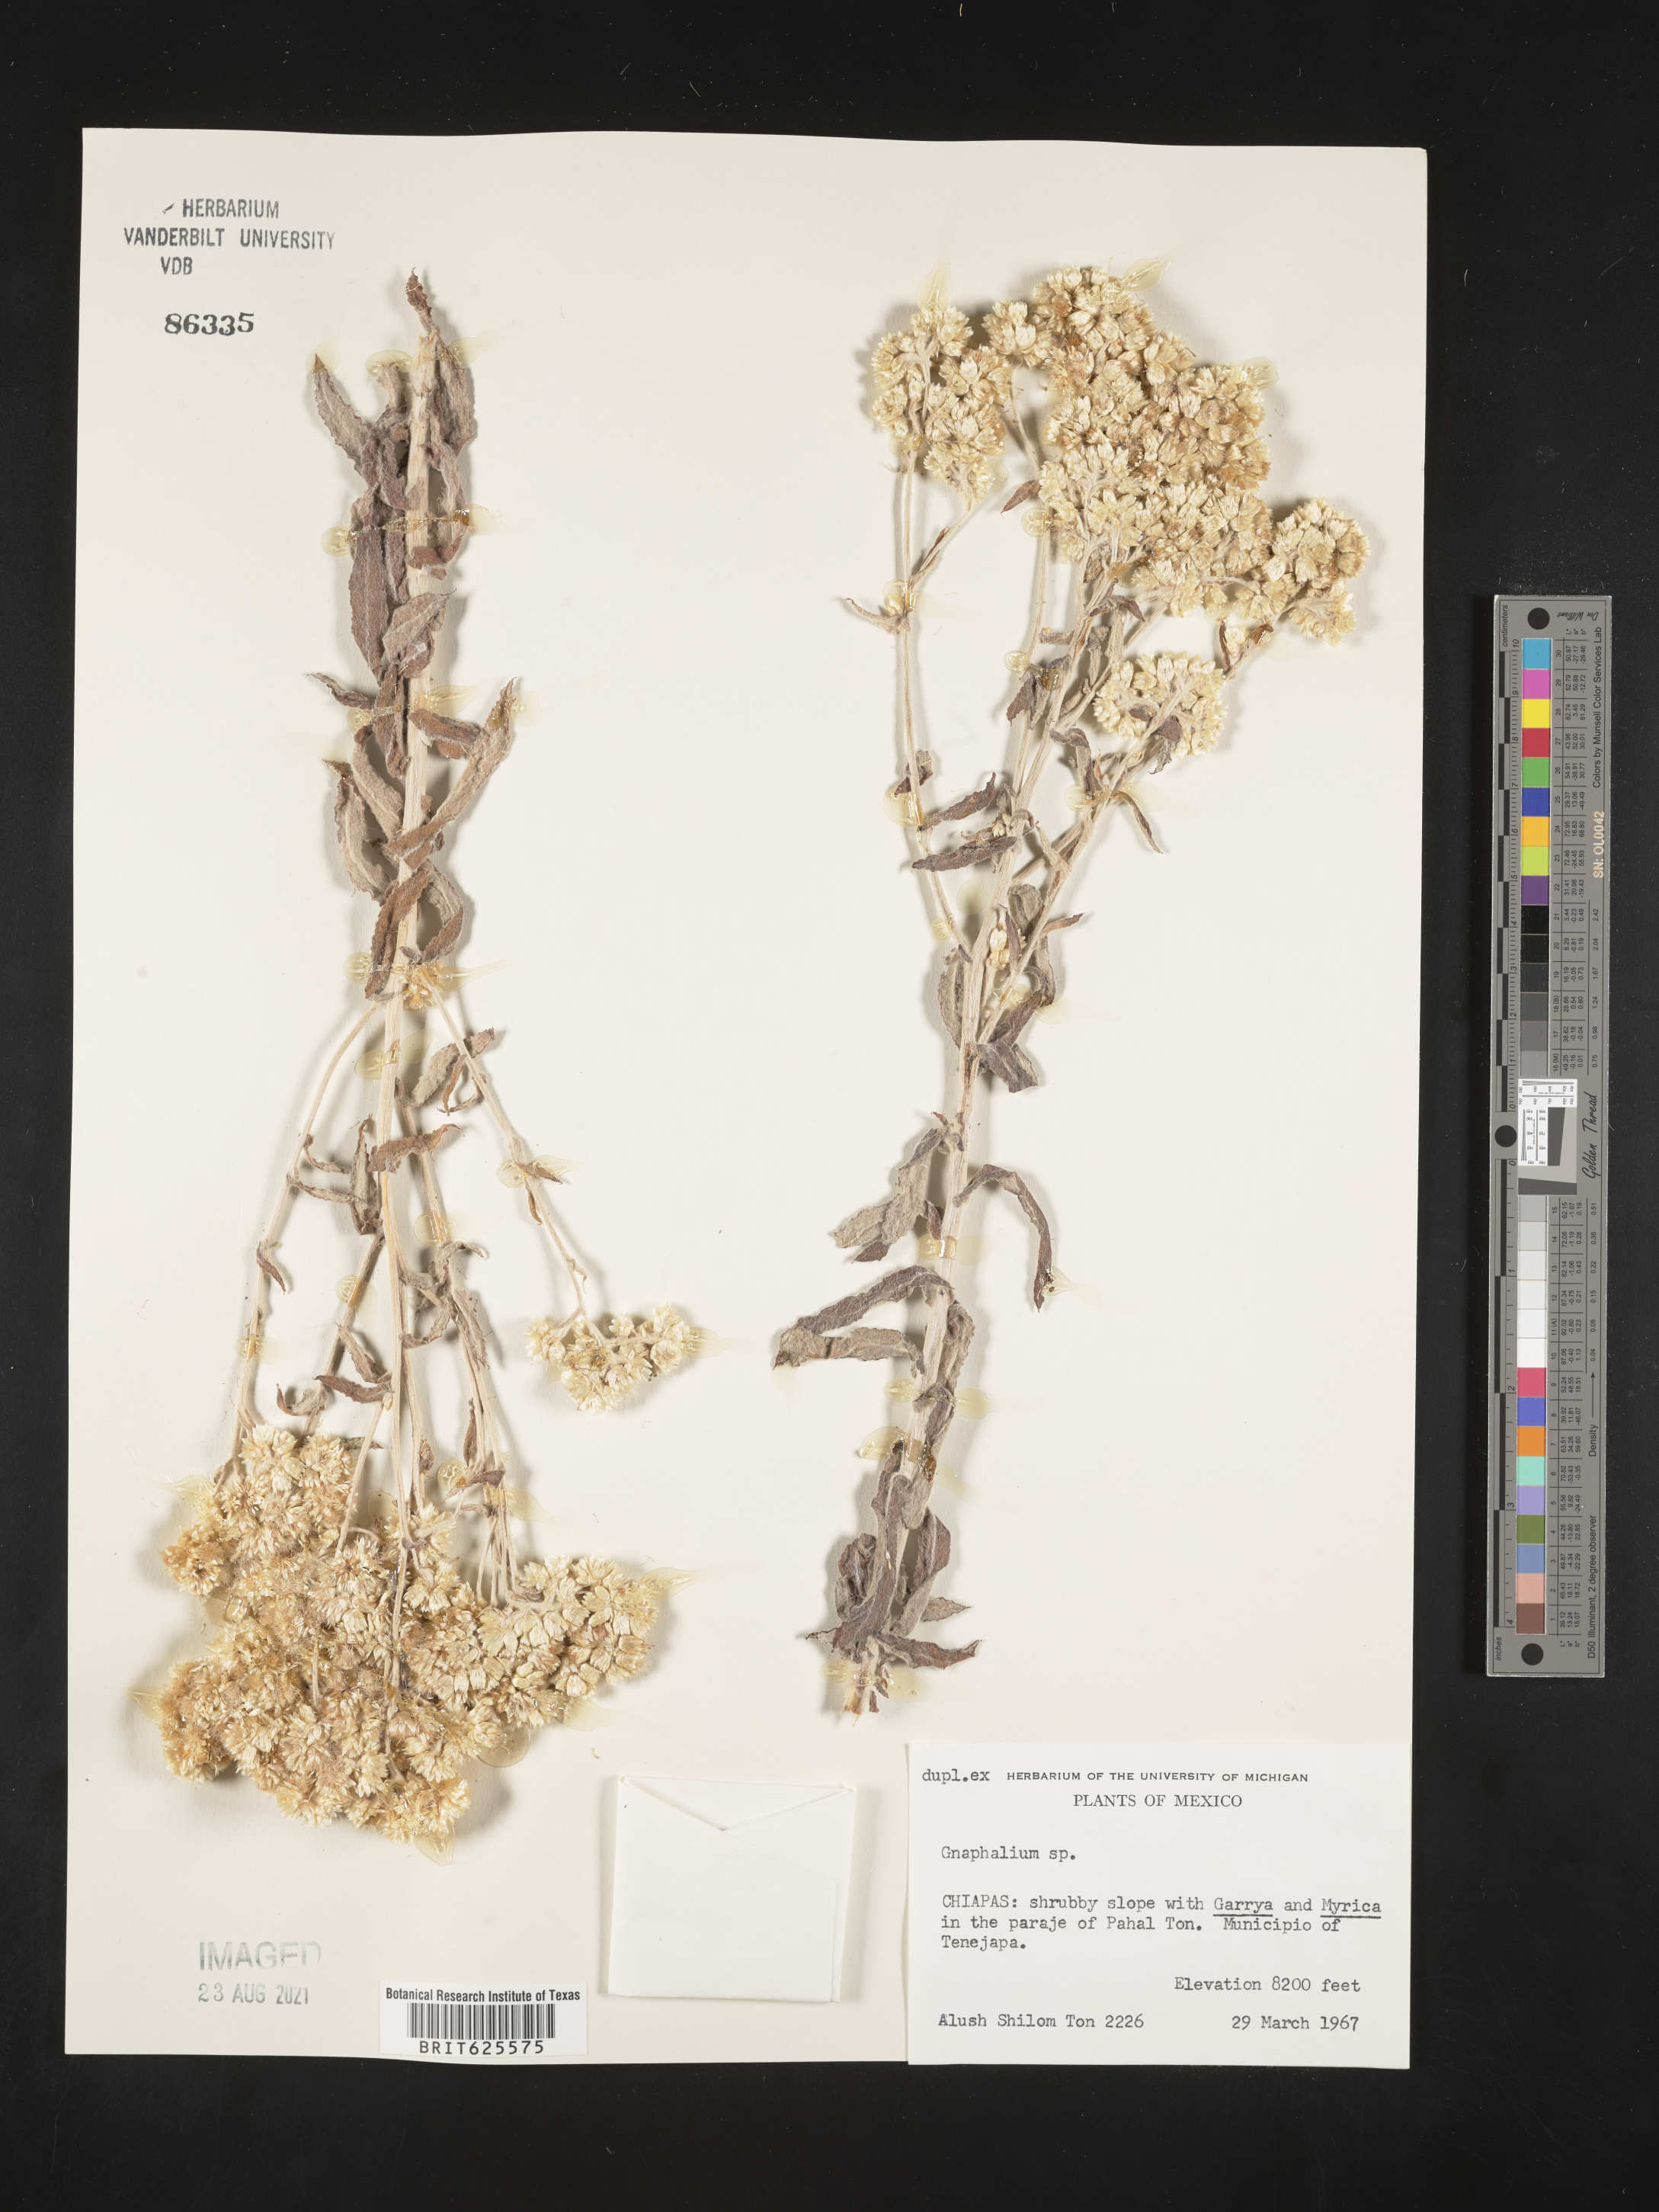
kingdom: Plantae
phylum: Tracheophyta
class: Magnoliopsida
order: Asterales
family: Asteraceae
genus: Gnaphalium
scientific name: Gnaphalium
